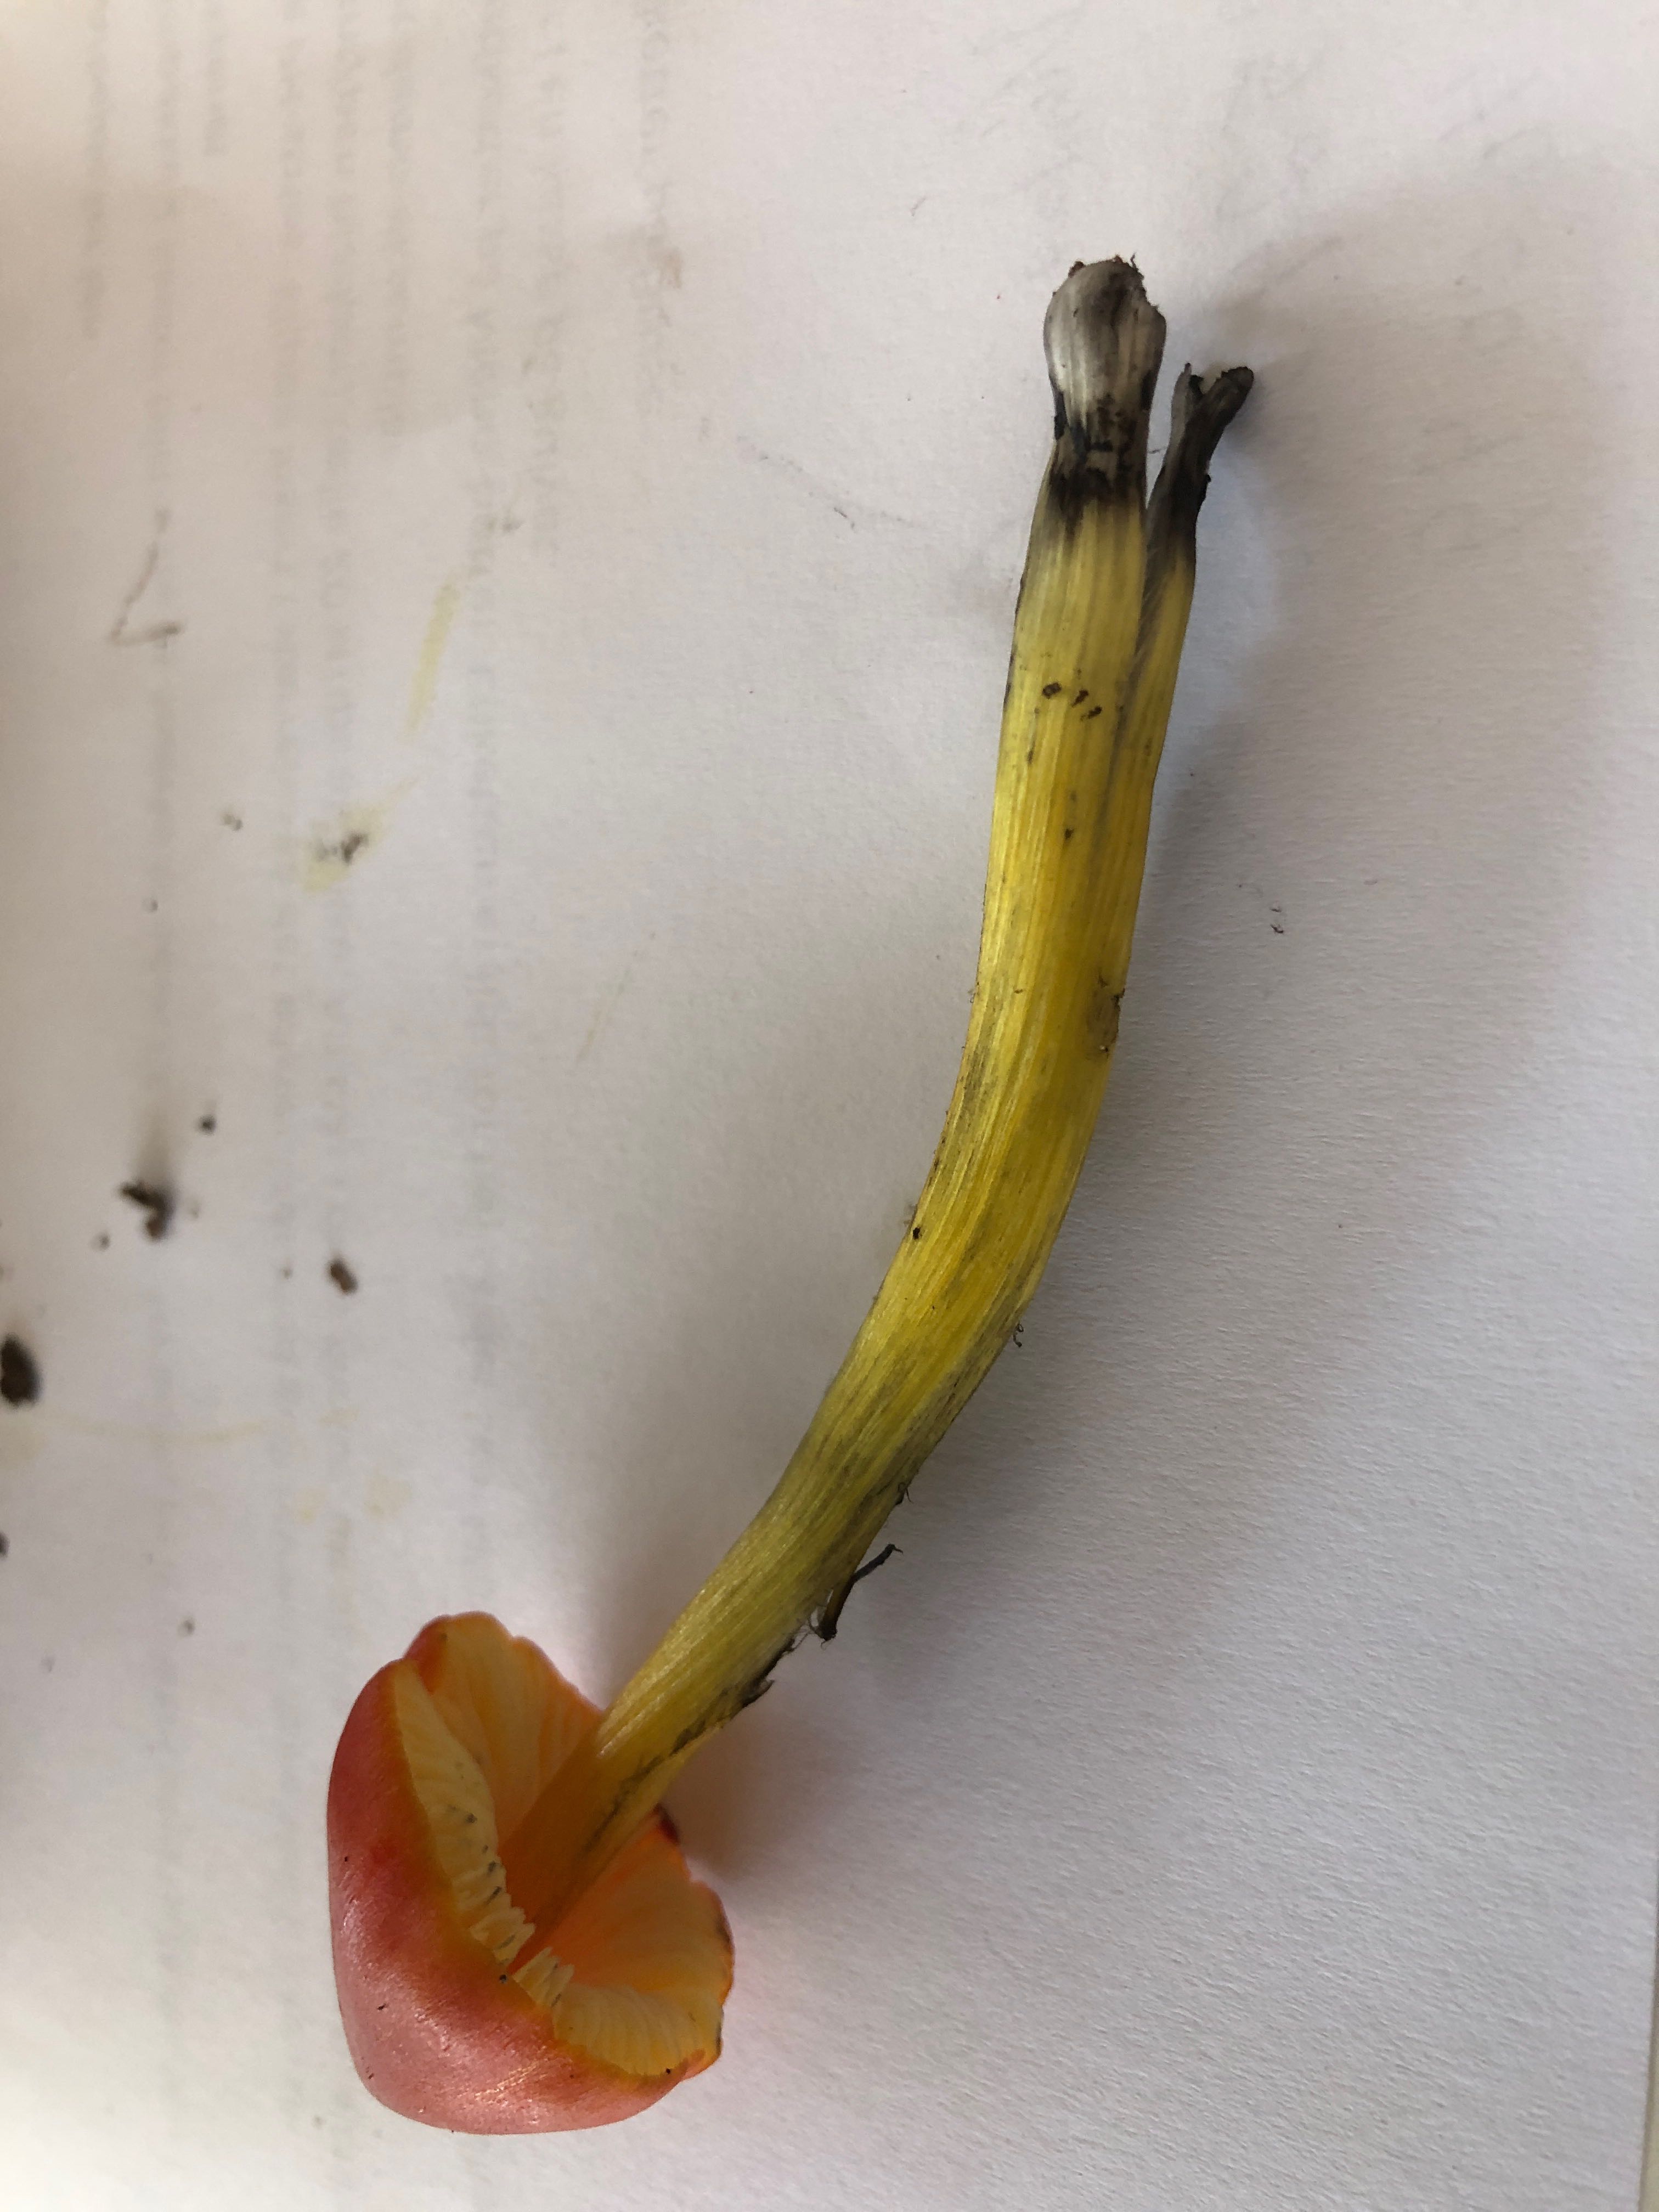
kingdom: Fungi
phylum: Basidiomycota
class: Agaricomycetes
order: Agaricales
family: Hygrophoraceae
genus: Hygrocybe
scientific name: Hygrocybe conica
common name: kegle-vokshat
